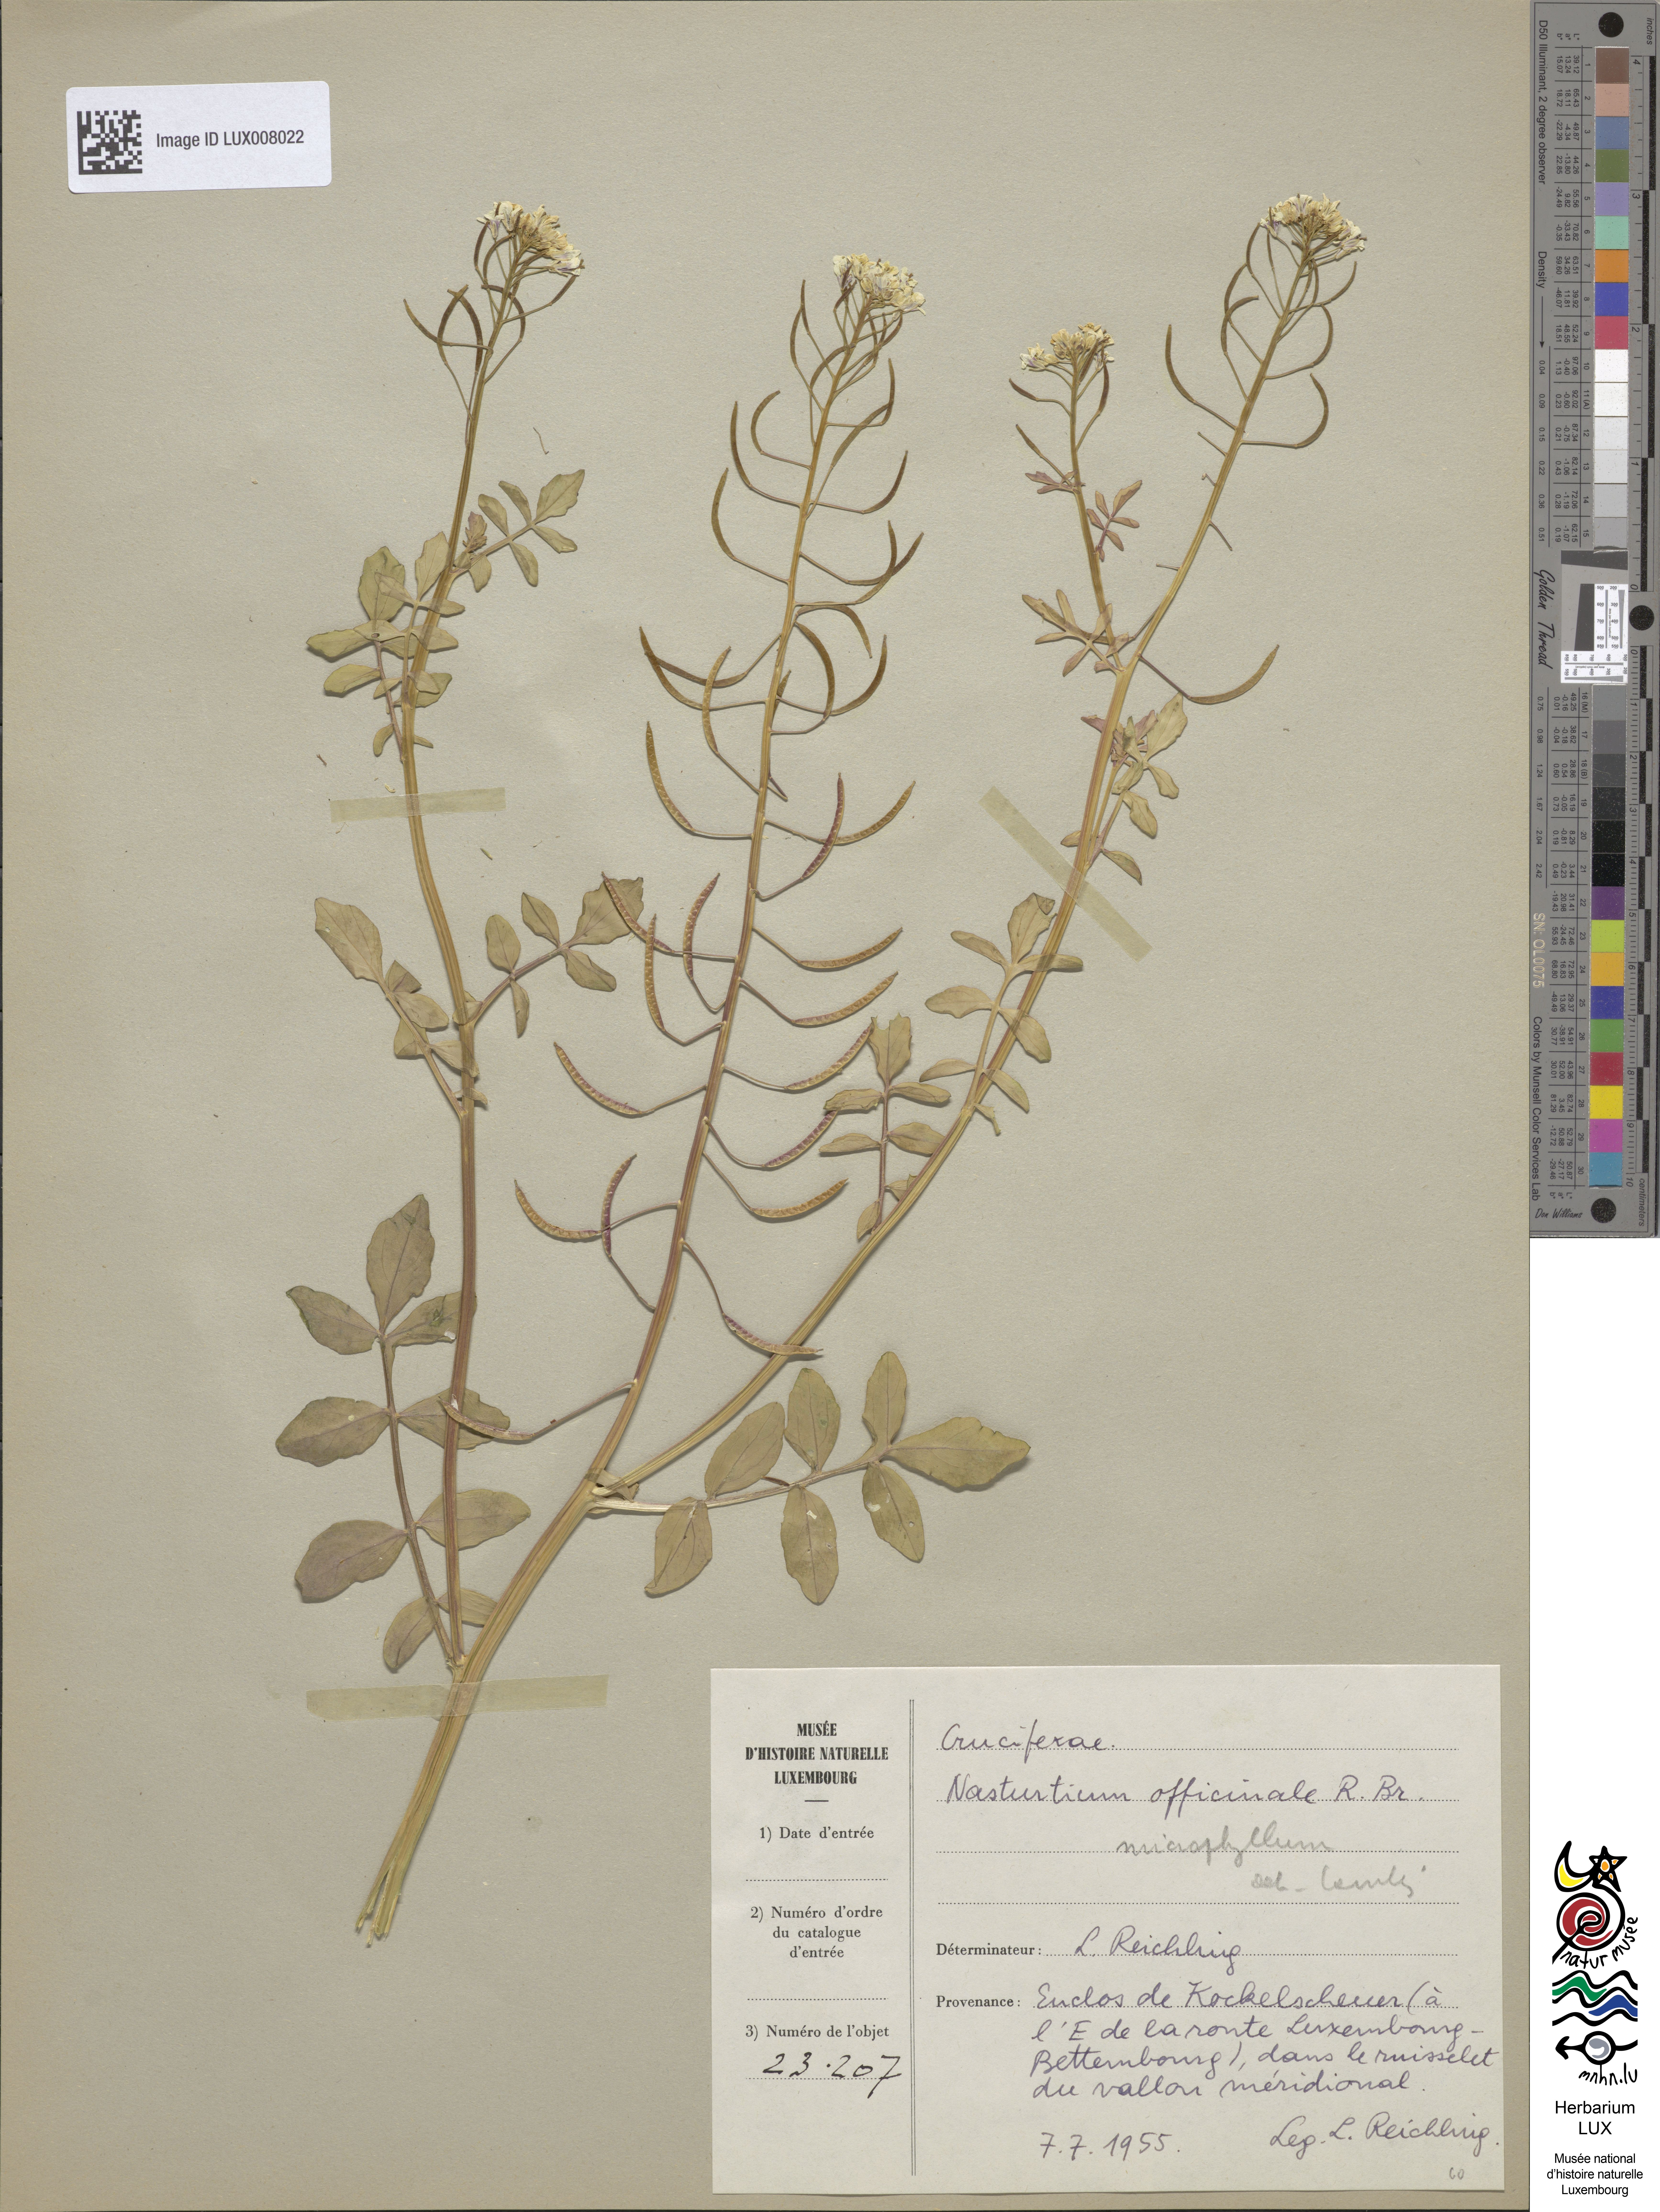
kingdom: Plantae
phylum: Tracheophyta
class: Magnoliopsida
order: Brassicales
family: Brassicaceae
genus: Nasturtium
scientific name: Nasturtium officinale
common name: Watercress
